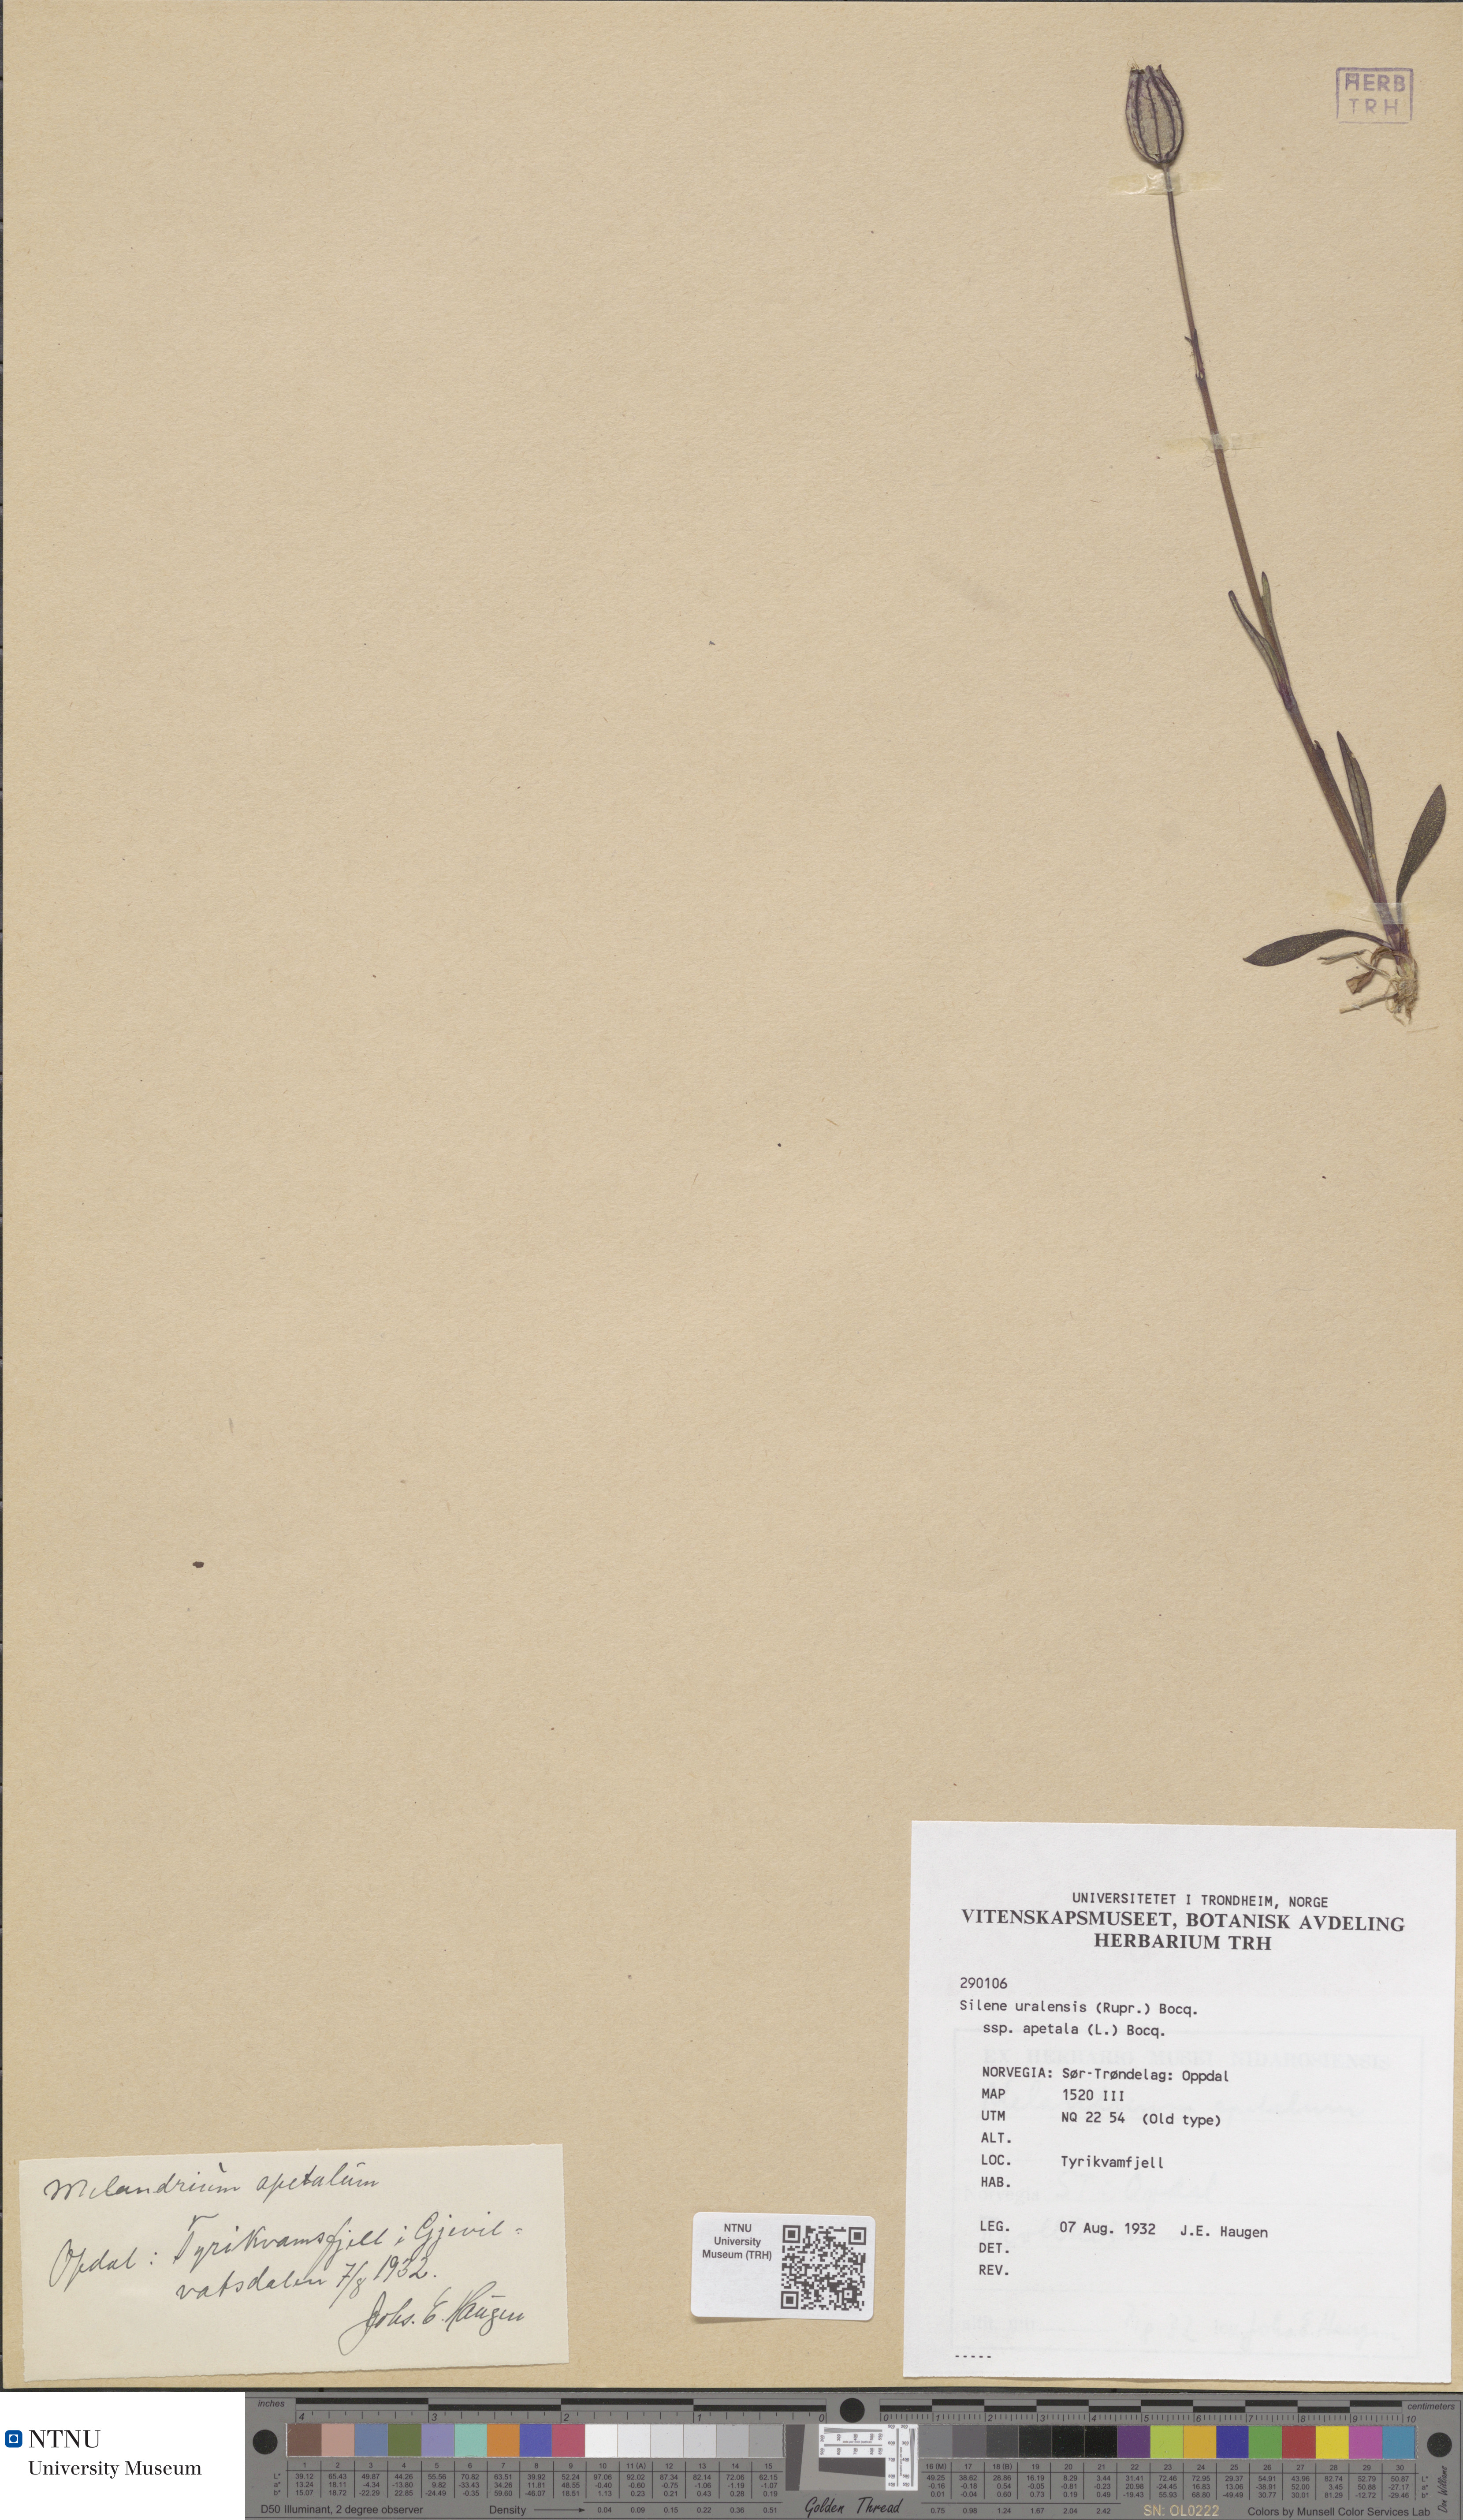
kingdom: Plantae
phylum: Tracheophyta
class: Magnoliopsida
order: Caryophyllales
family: Caryophyllaceae
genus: Silene
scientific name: Silene wahlbergella
